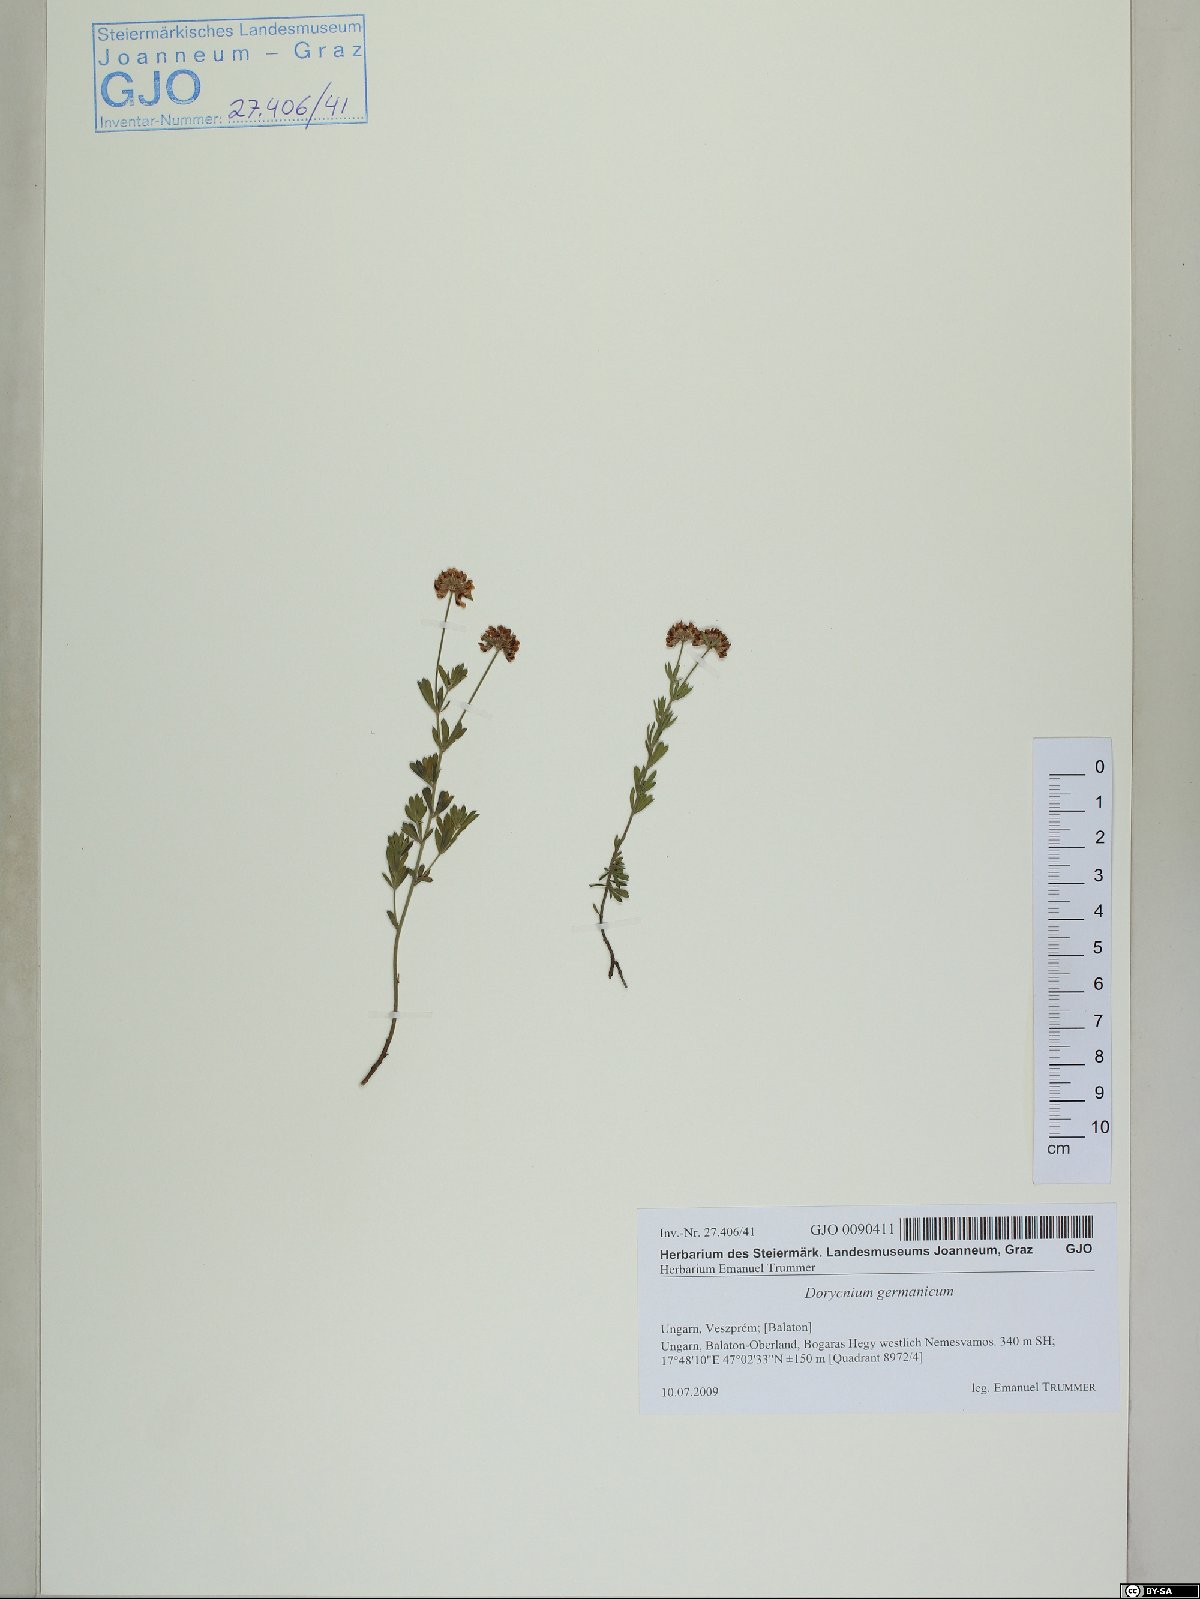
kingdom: Plantae
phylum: Tracheophyta
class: Magnoliopsida
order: Fabales
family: Fabaceae
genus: Lotus
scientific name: Lotus germanicus
